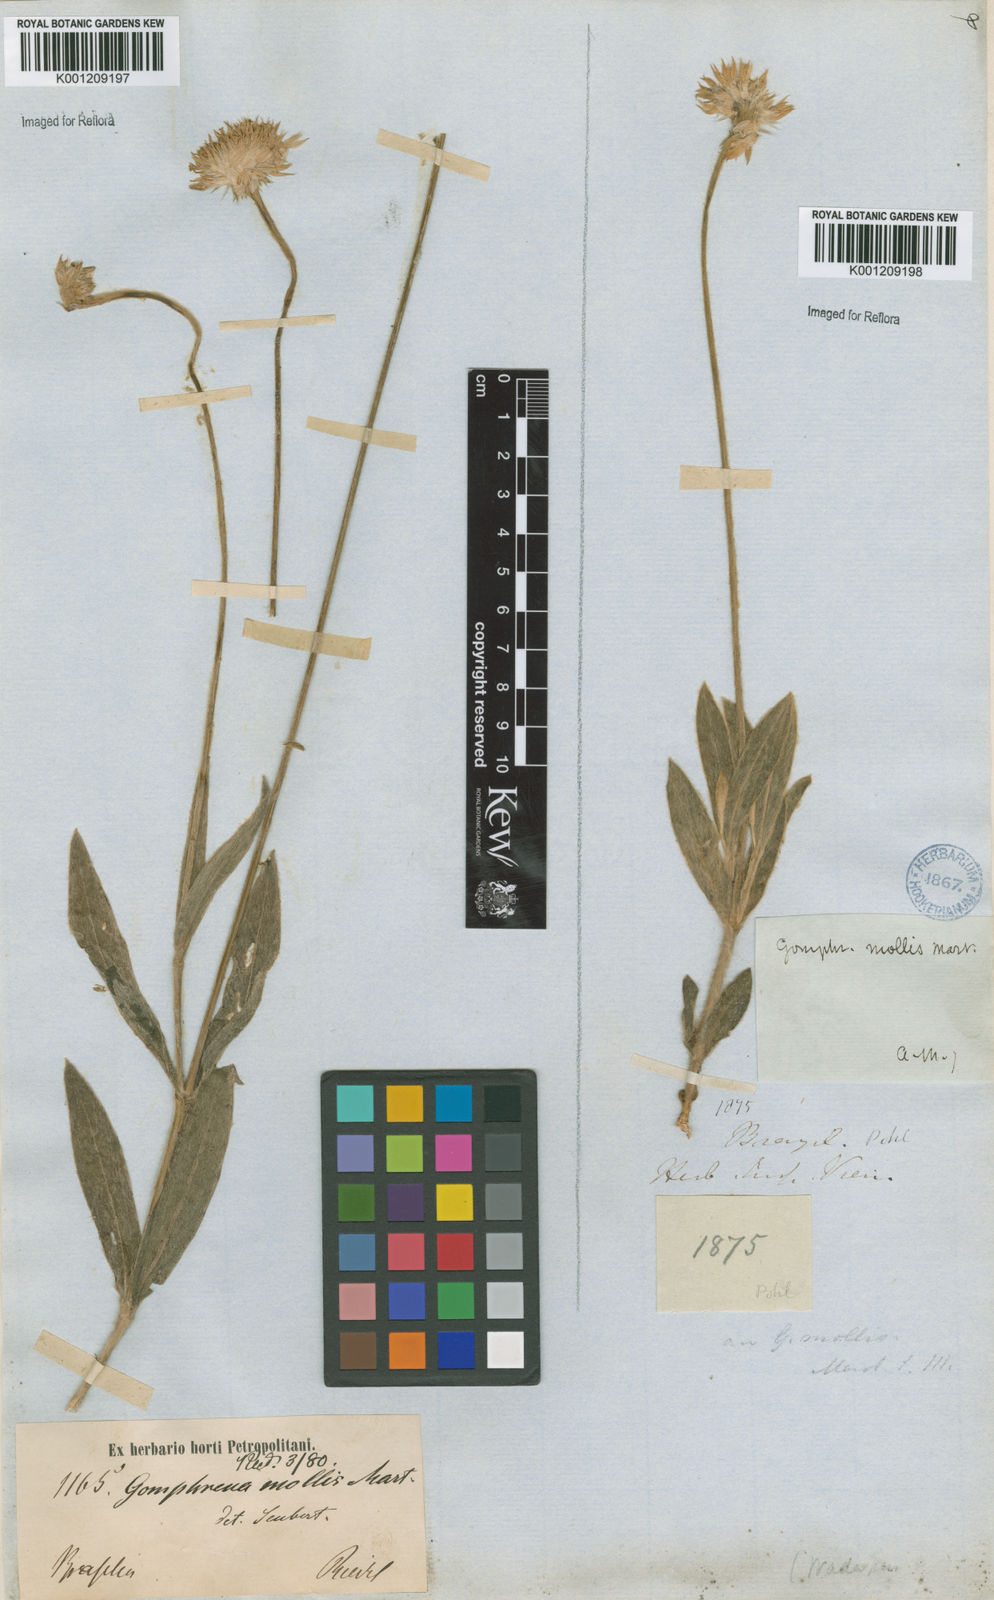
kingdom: Plantae
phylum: Tracheophyta
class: Magnoliopsida
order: Caryophyllales
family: Amaranthaceae
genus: Gomphrena
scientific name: Gomphrena mollis
